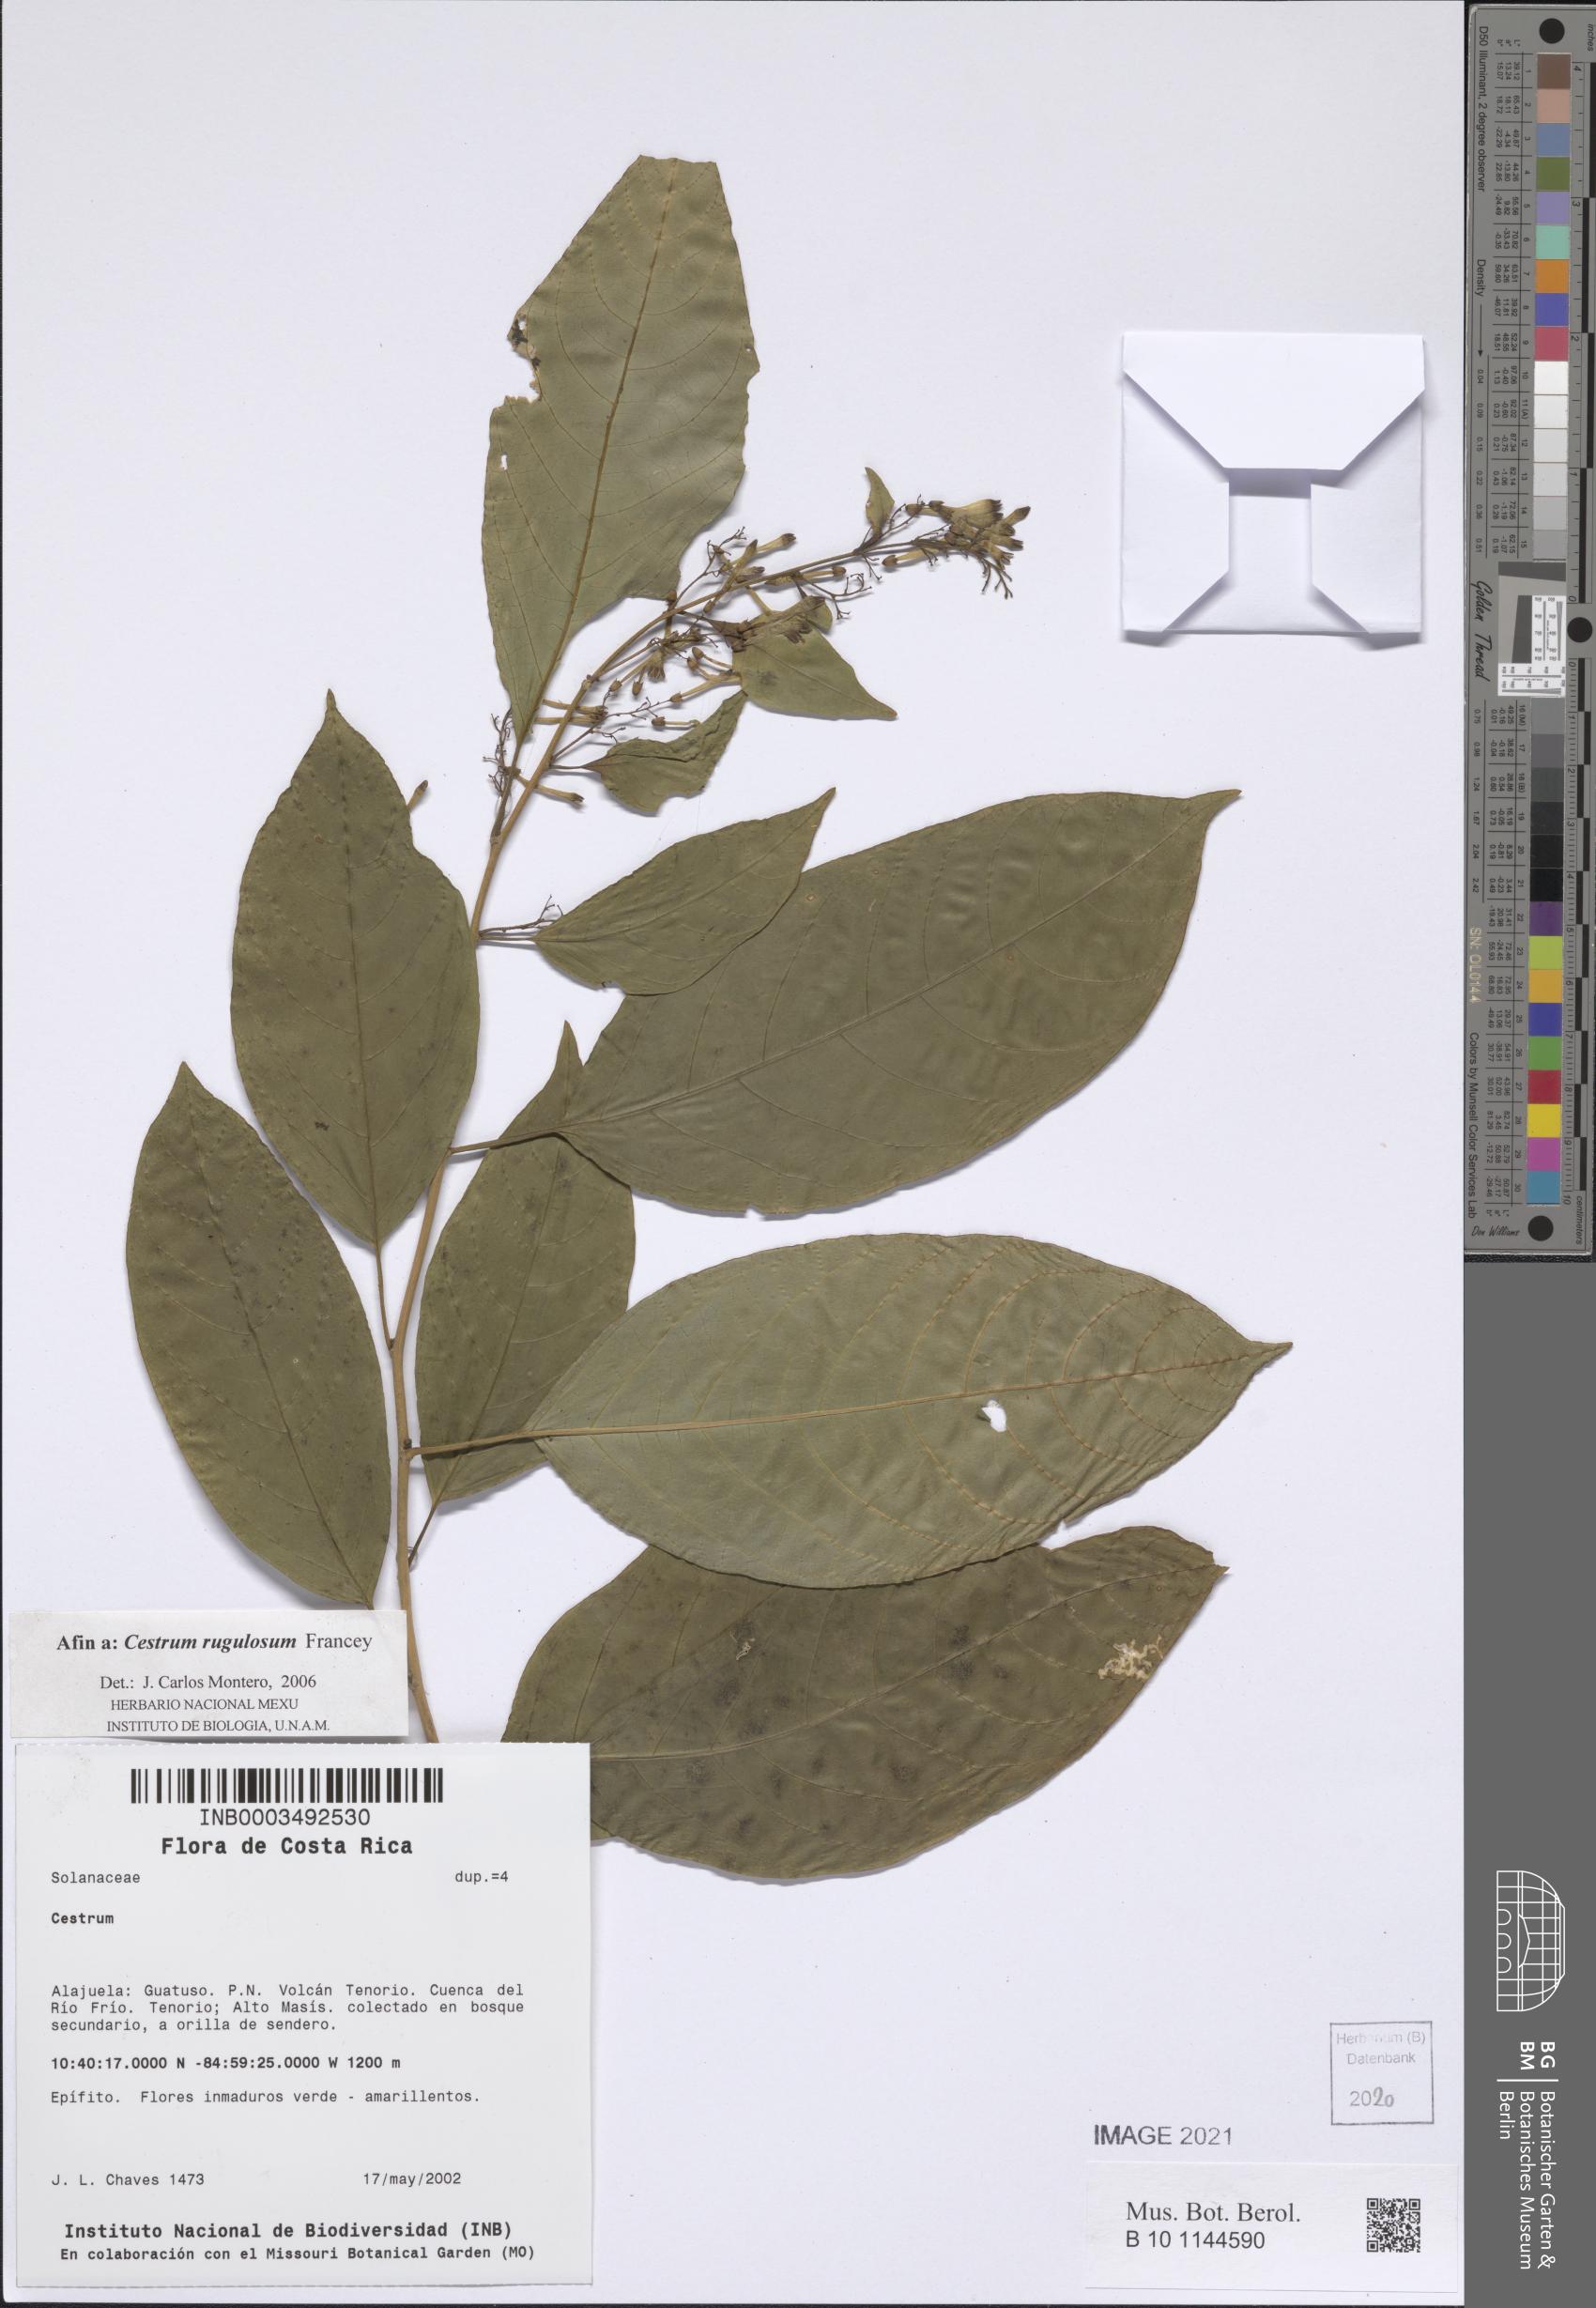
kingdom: Plantae
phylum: Tracheophyta
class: Magnoliopsida
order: Solanales
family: Solanaceae
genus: Cestrum
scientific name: Cestrum rugulosum
